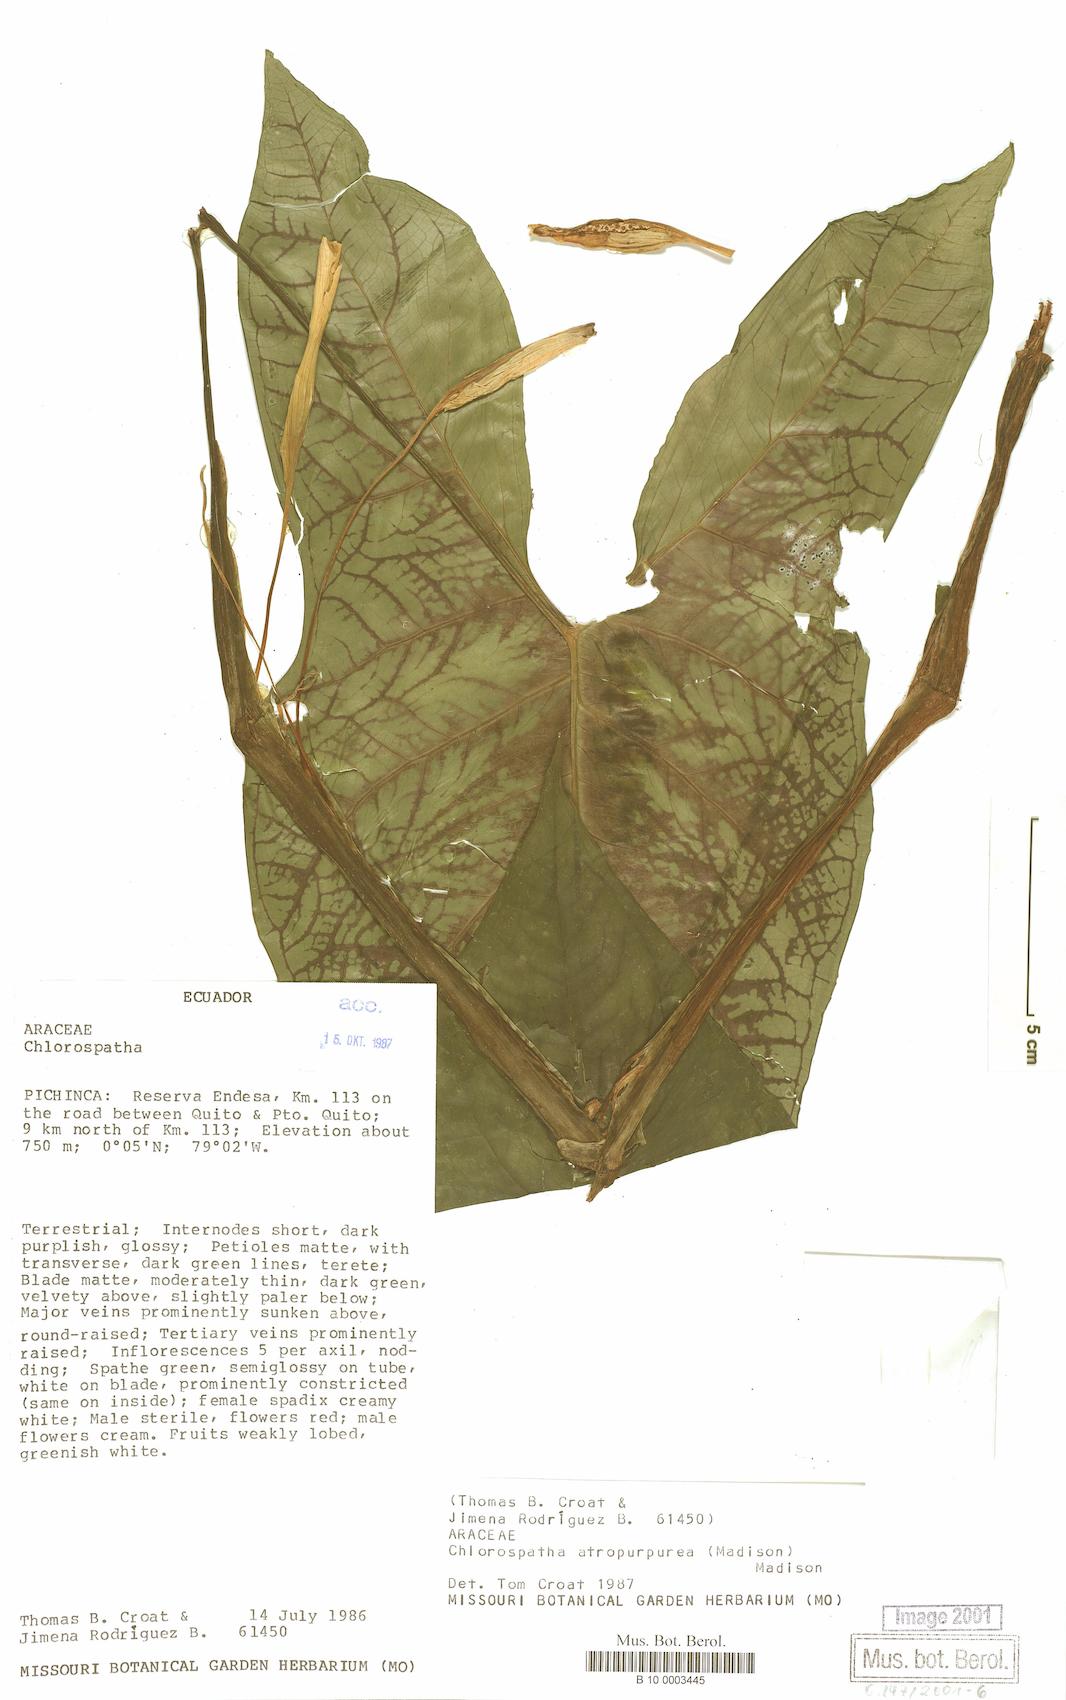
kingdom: Plantae
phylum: Tracheophyta
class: Liliopsida
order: Alismatales
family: Araceae
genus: Chlorospatha
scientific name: Chlorospatha atropurpurea
